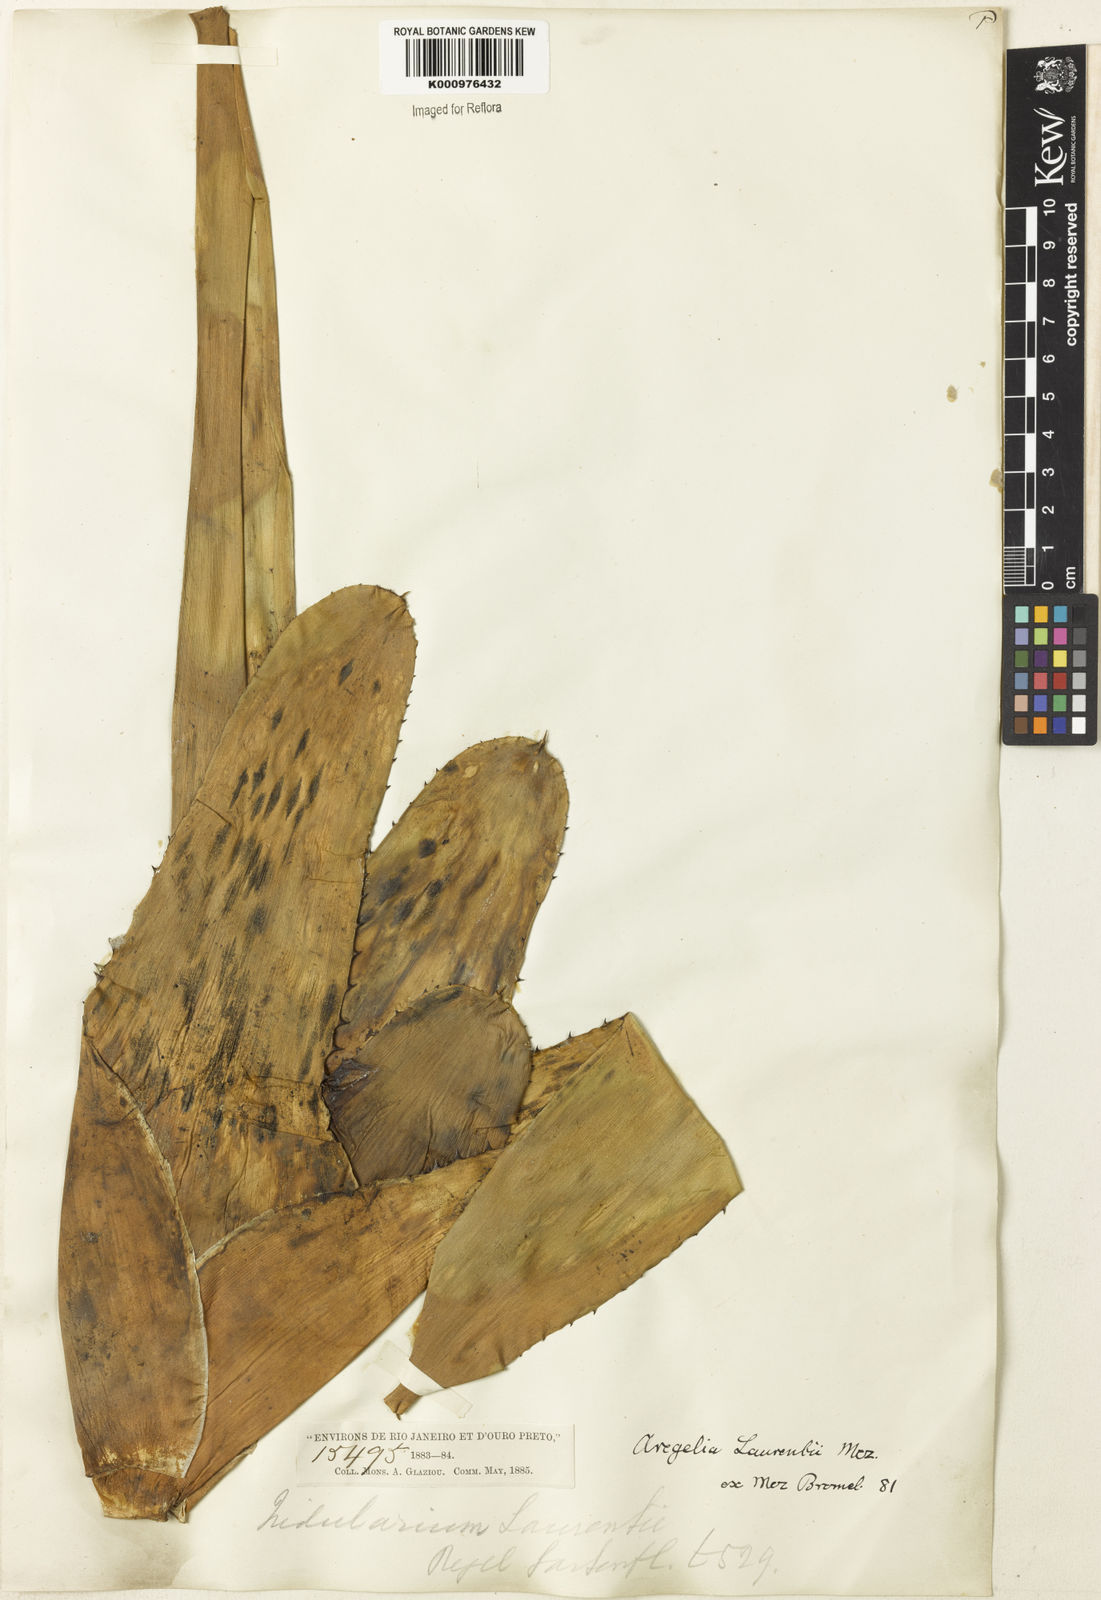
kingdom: Plantae
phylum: Tracheophyta
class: Liliopsida
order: Poales
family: Bromeliaceae
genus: Neoregelia
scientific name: Neoregelia concentrica
